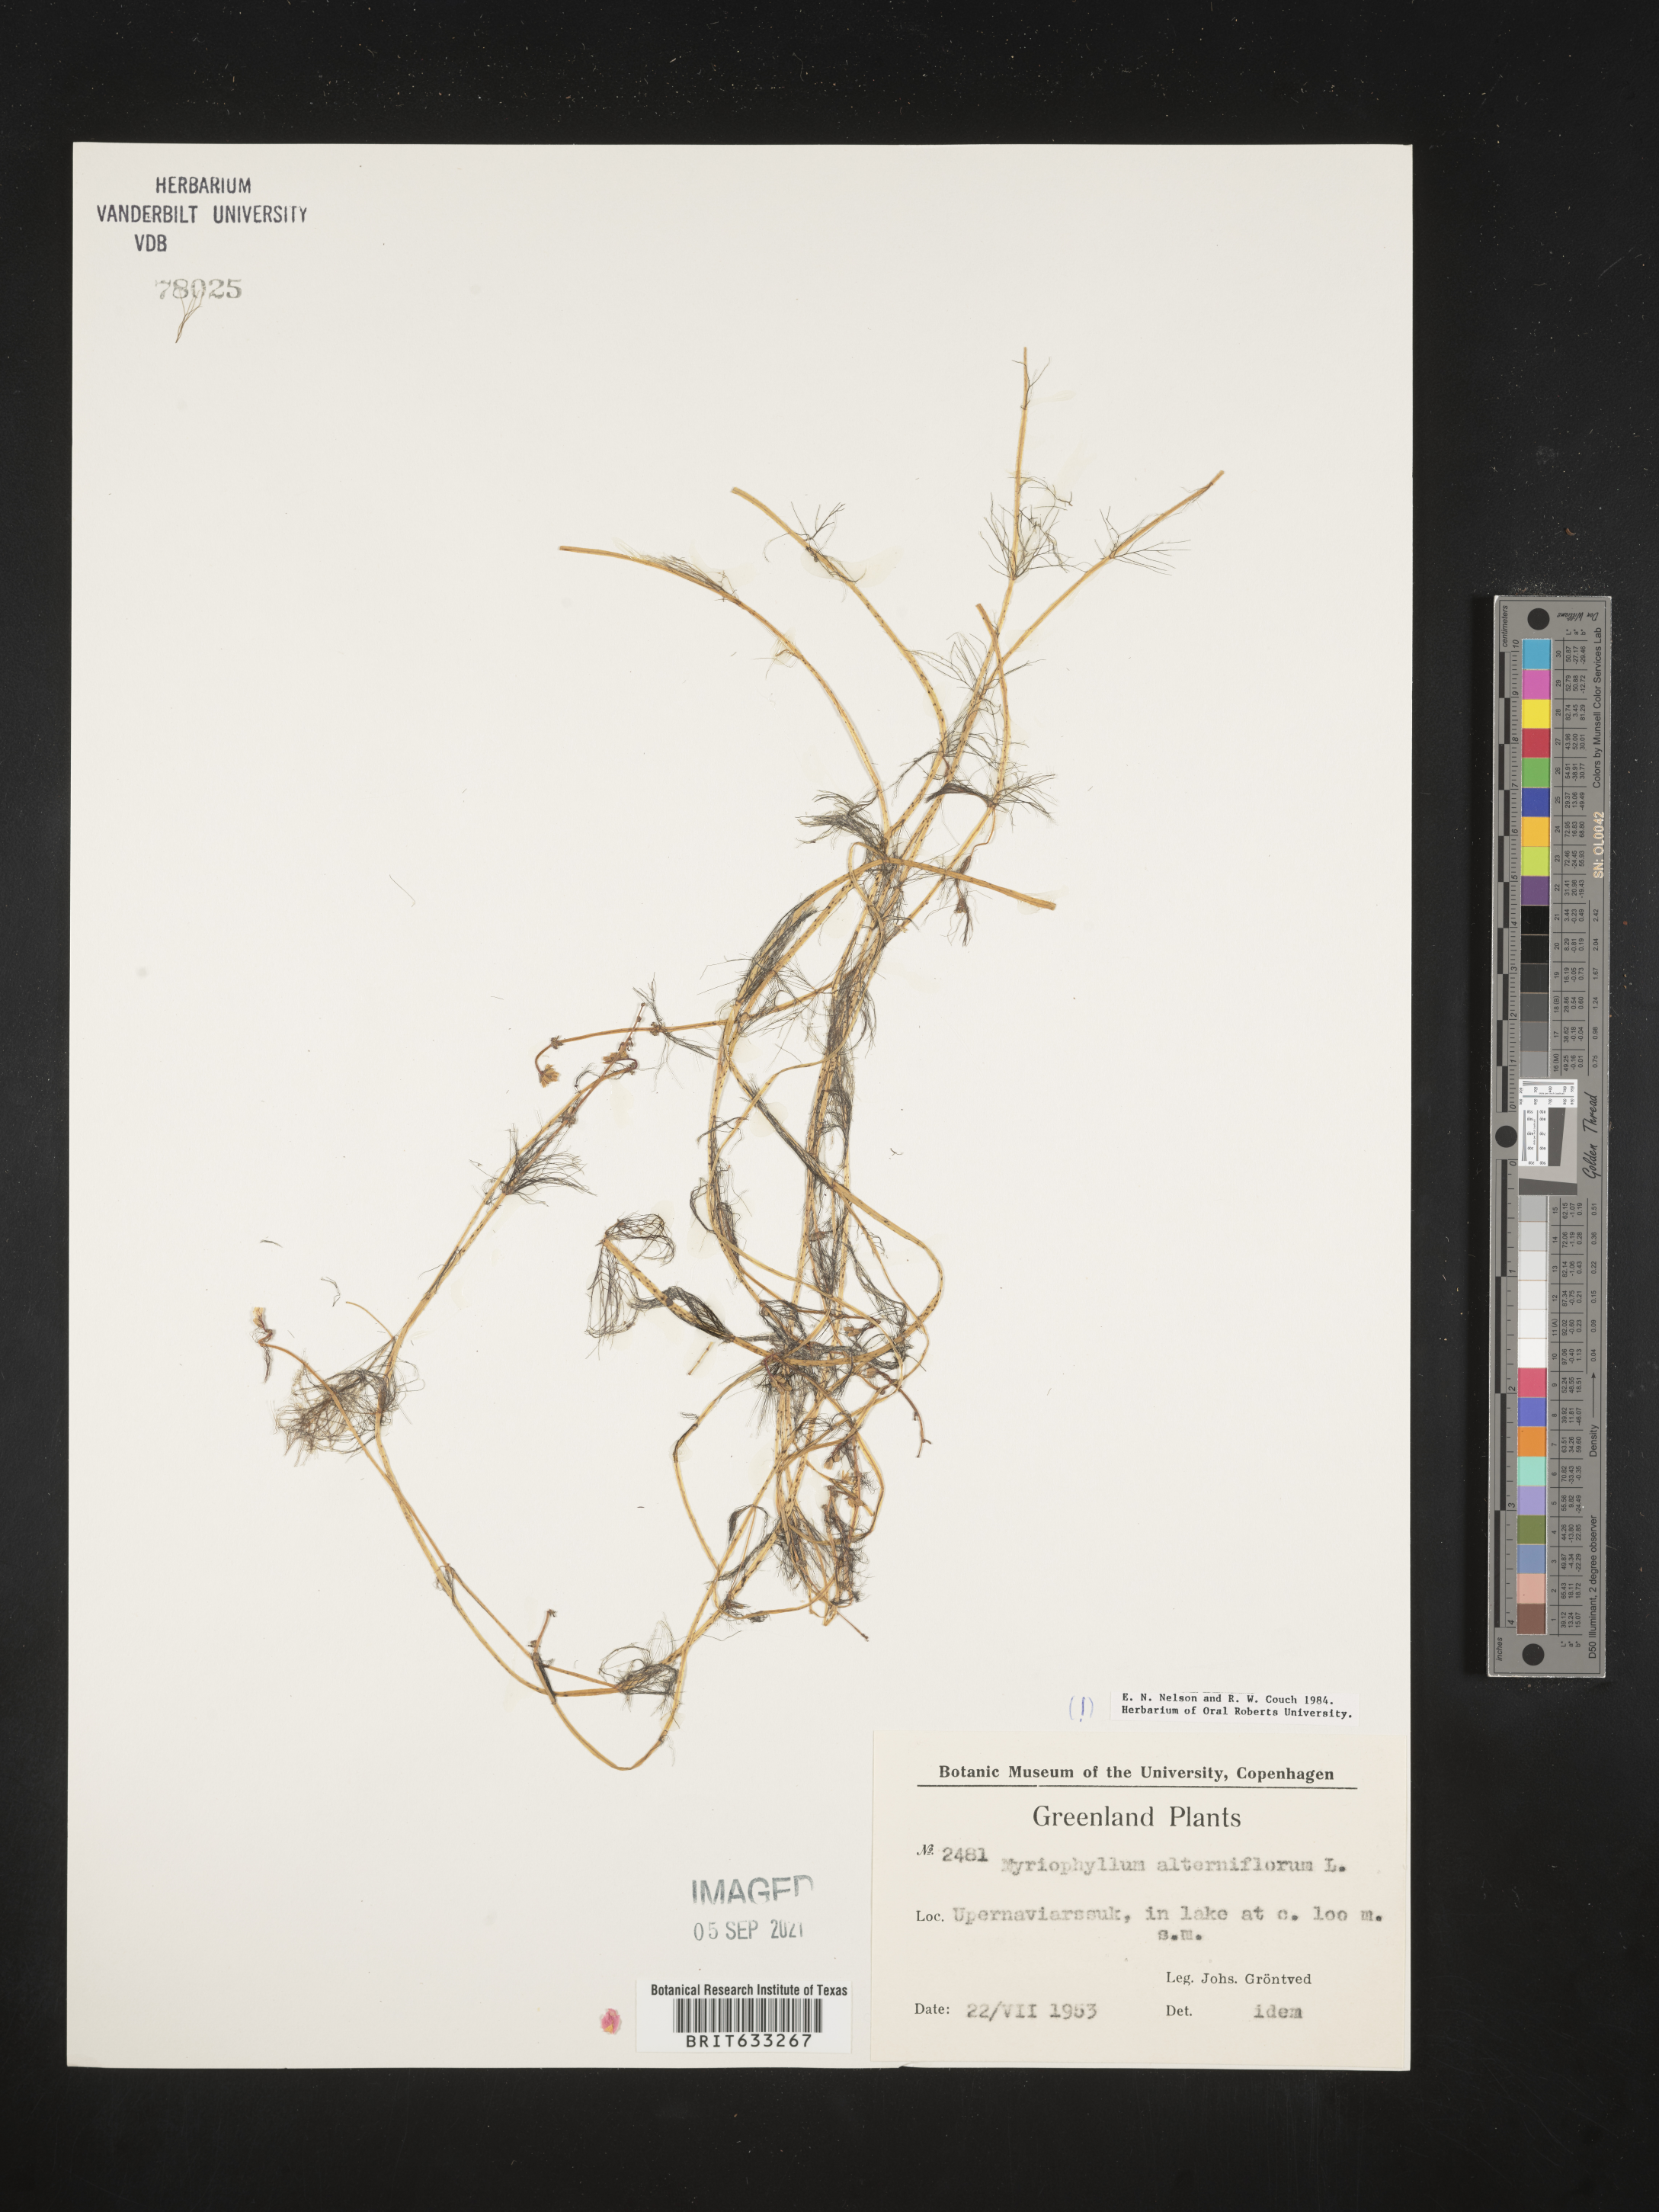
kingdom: Plantae
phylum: Tracheophyta
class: Magnoliopsida
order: Saxifragales
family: Haloragaceae
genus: Myriophyllum
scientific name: Myriophyllum
